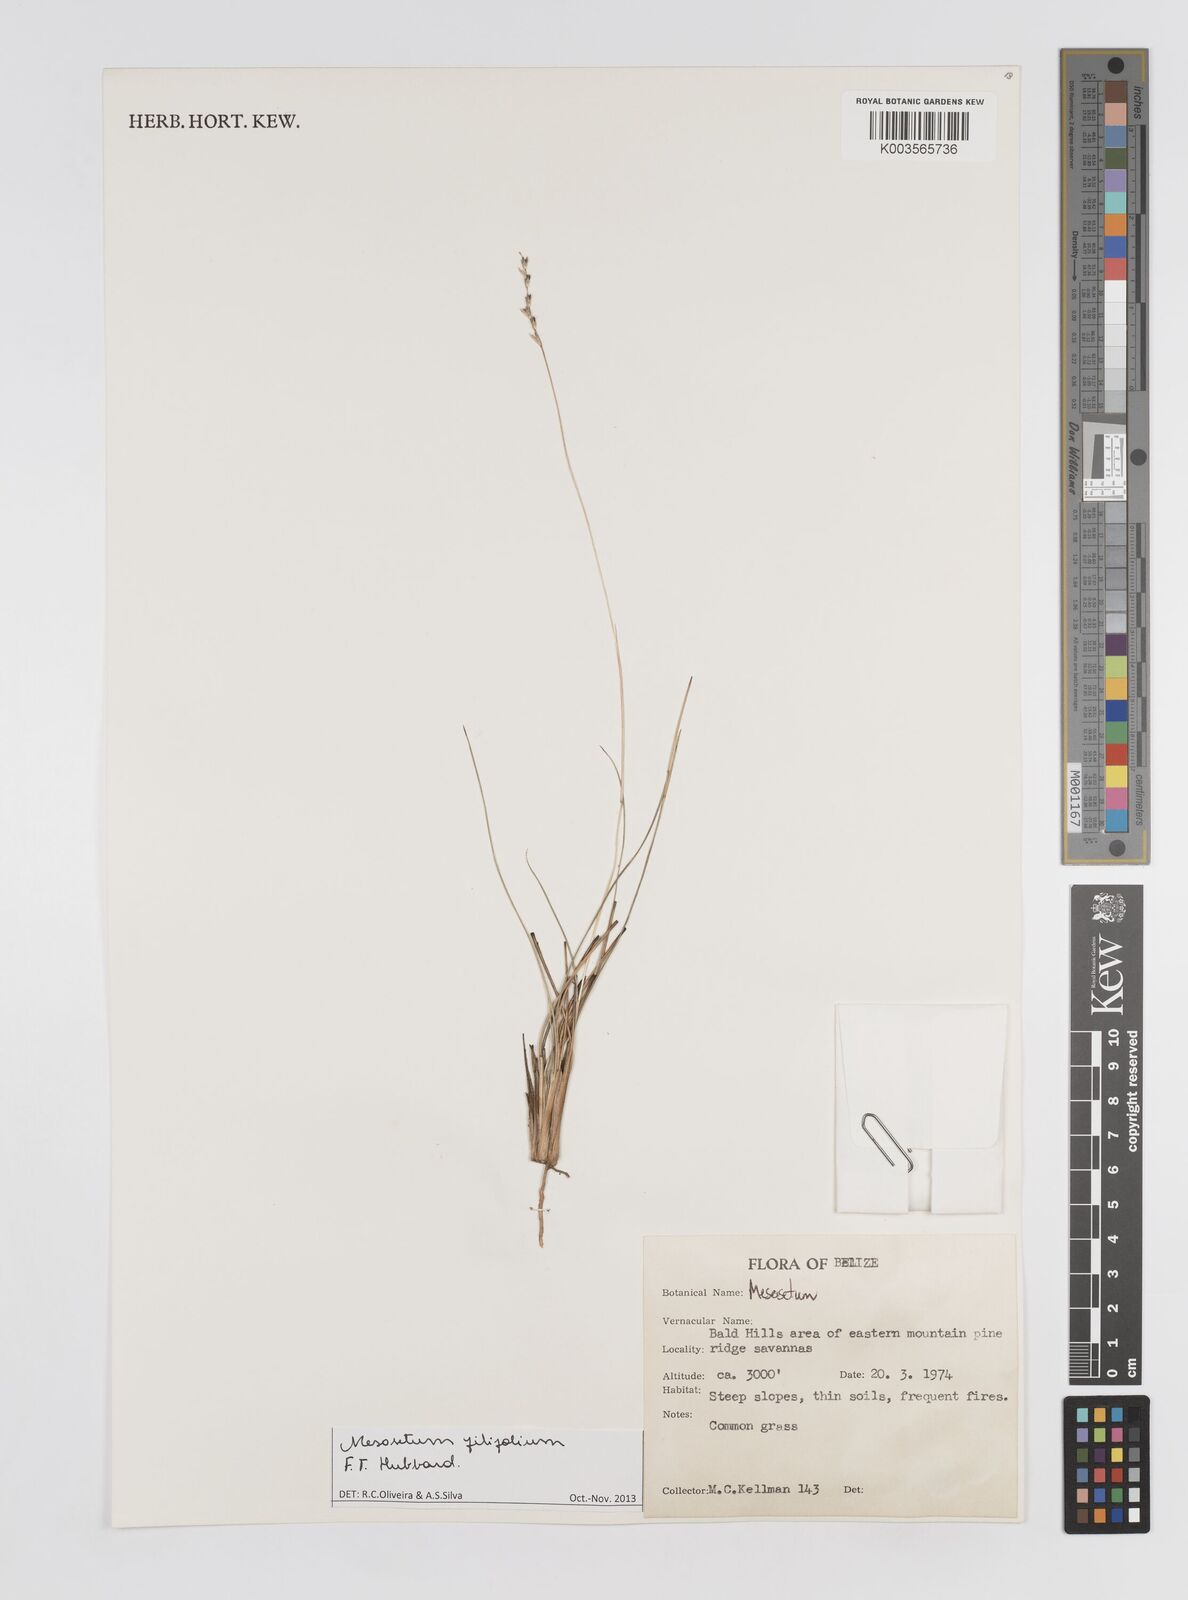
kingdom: Plantae
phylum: Tracheophyta
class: Liliopsida
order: Poales
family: Poaceae
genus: Mesosetum
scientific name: Mesosetum filifolium
